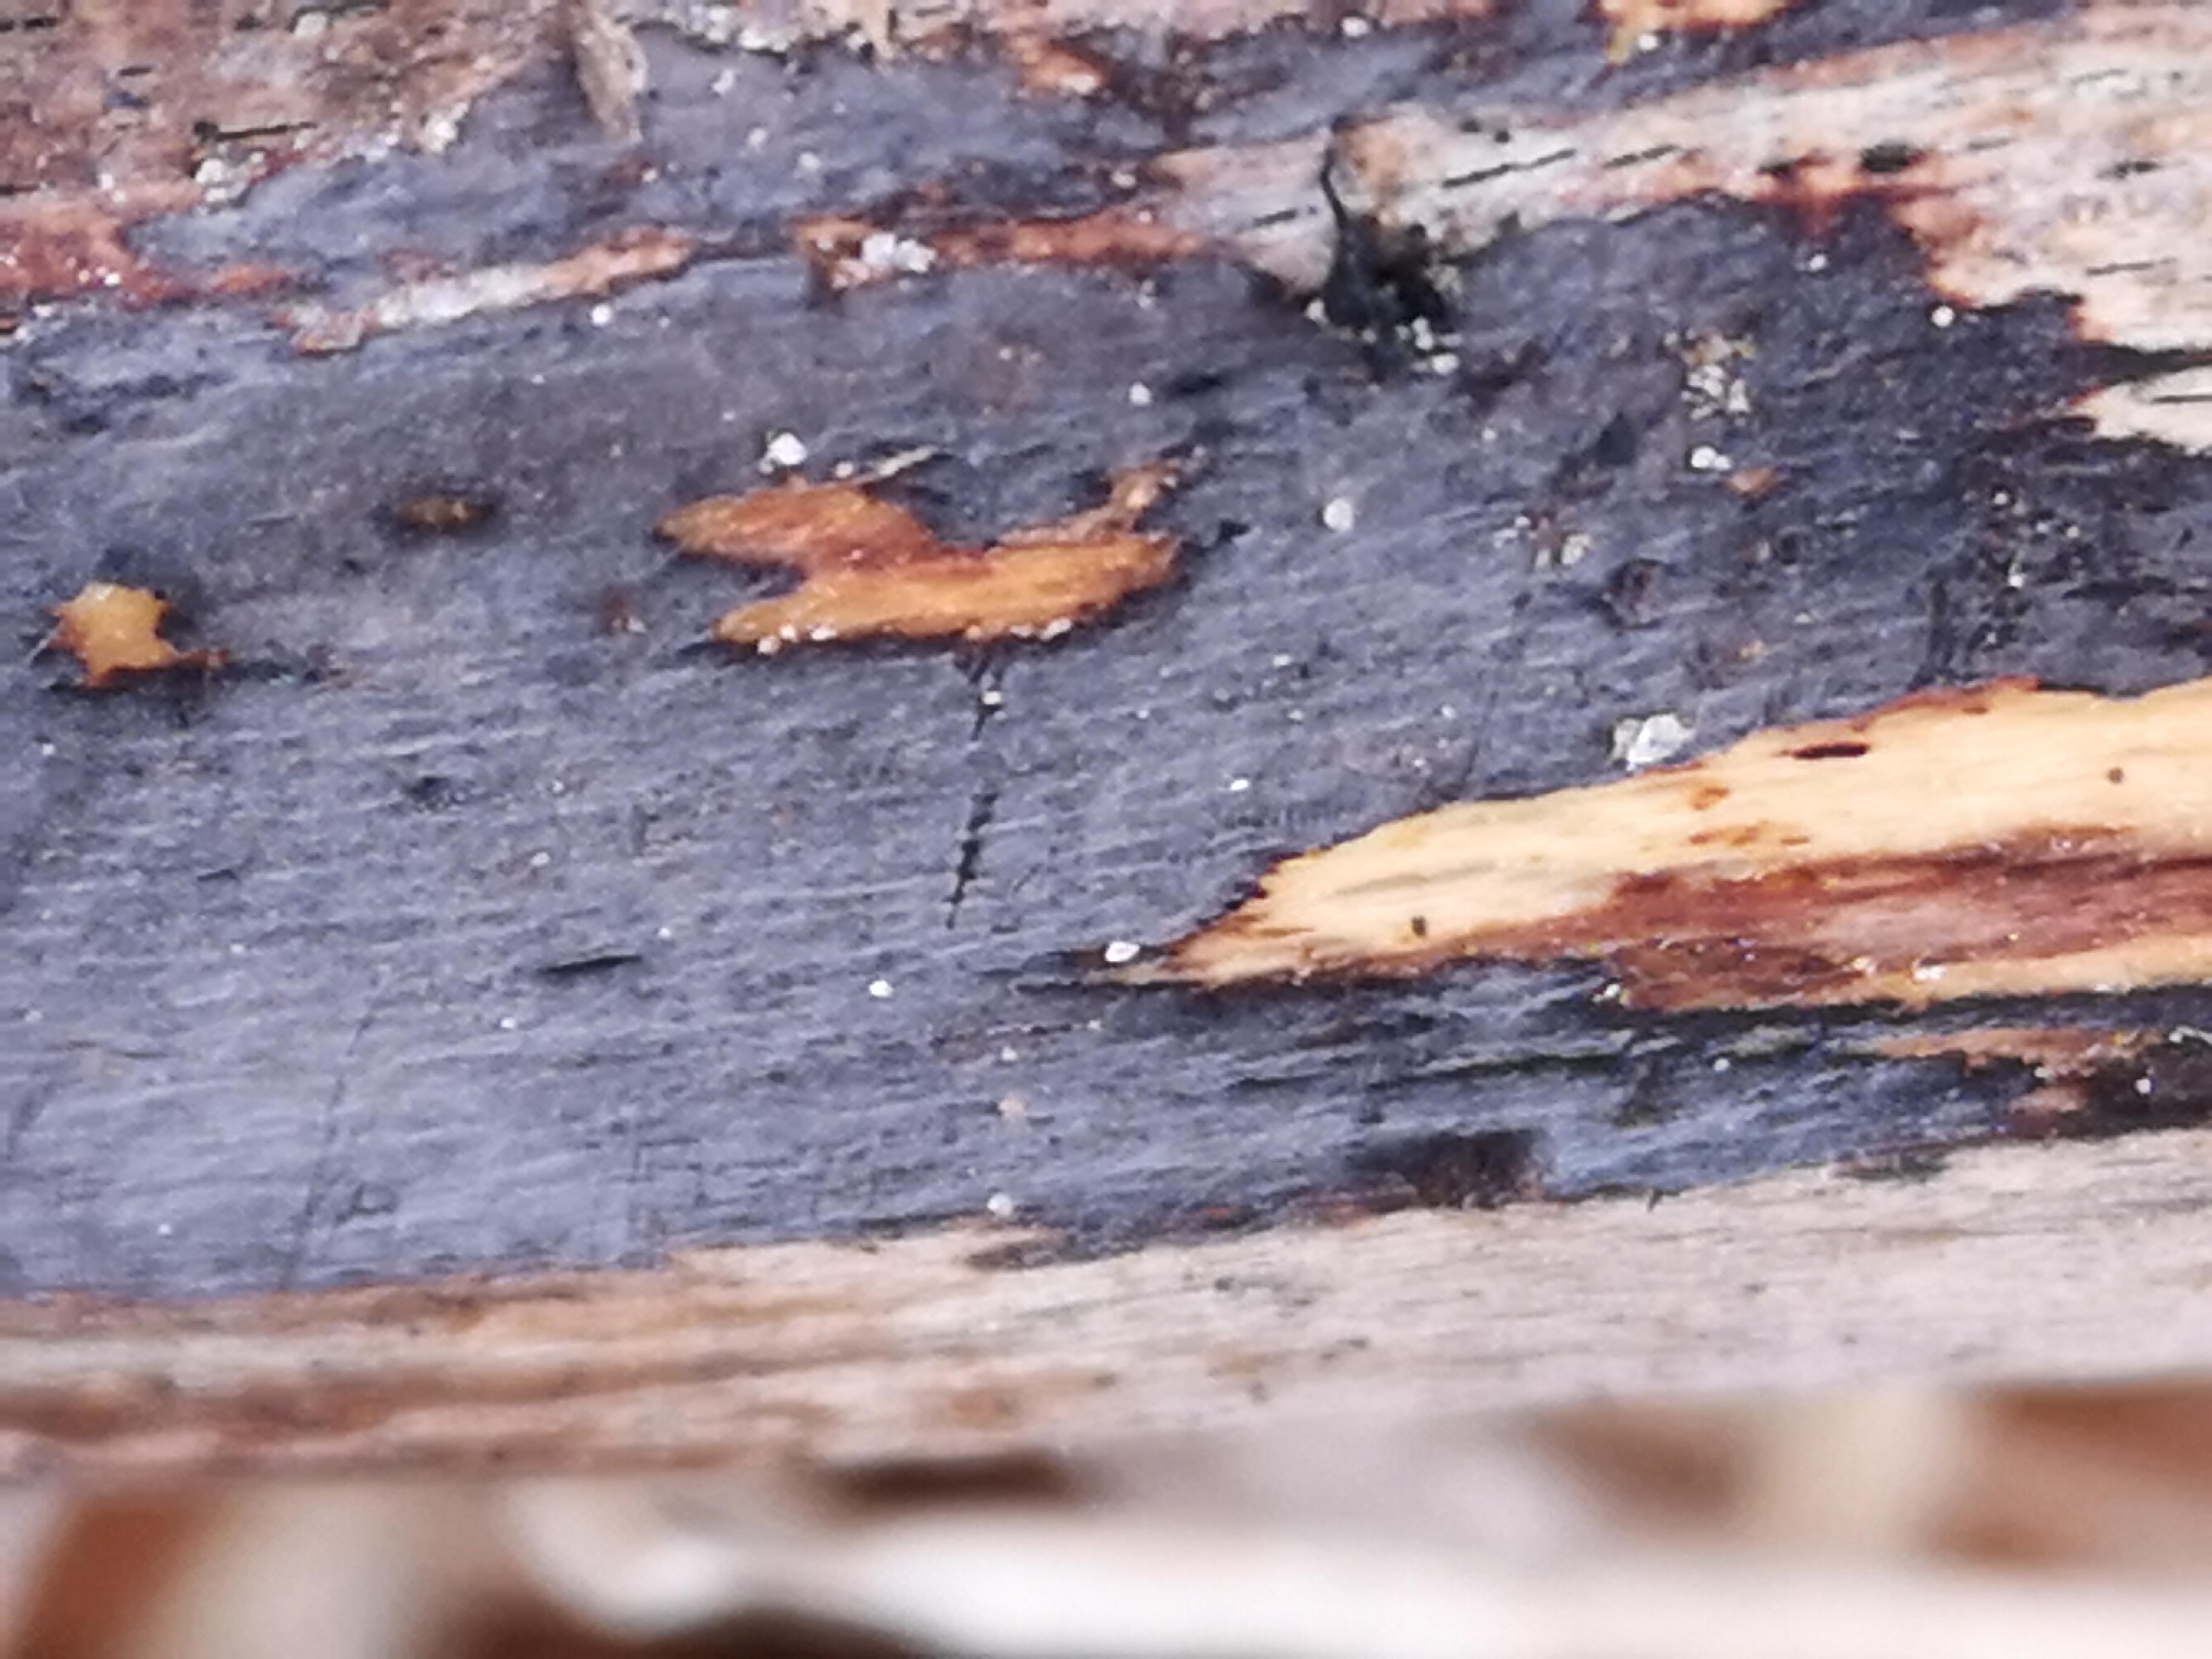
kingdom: Fungi
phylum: Basidiomycota
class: Agaricomycetes
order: Russulales
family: Peniophoraceae
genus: Peniophora
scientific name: Peniophora
